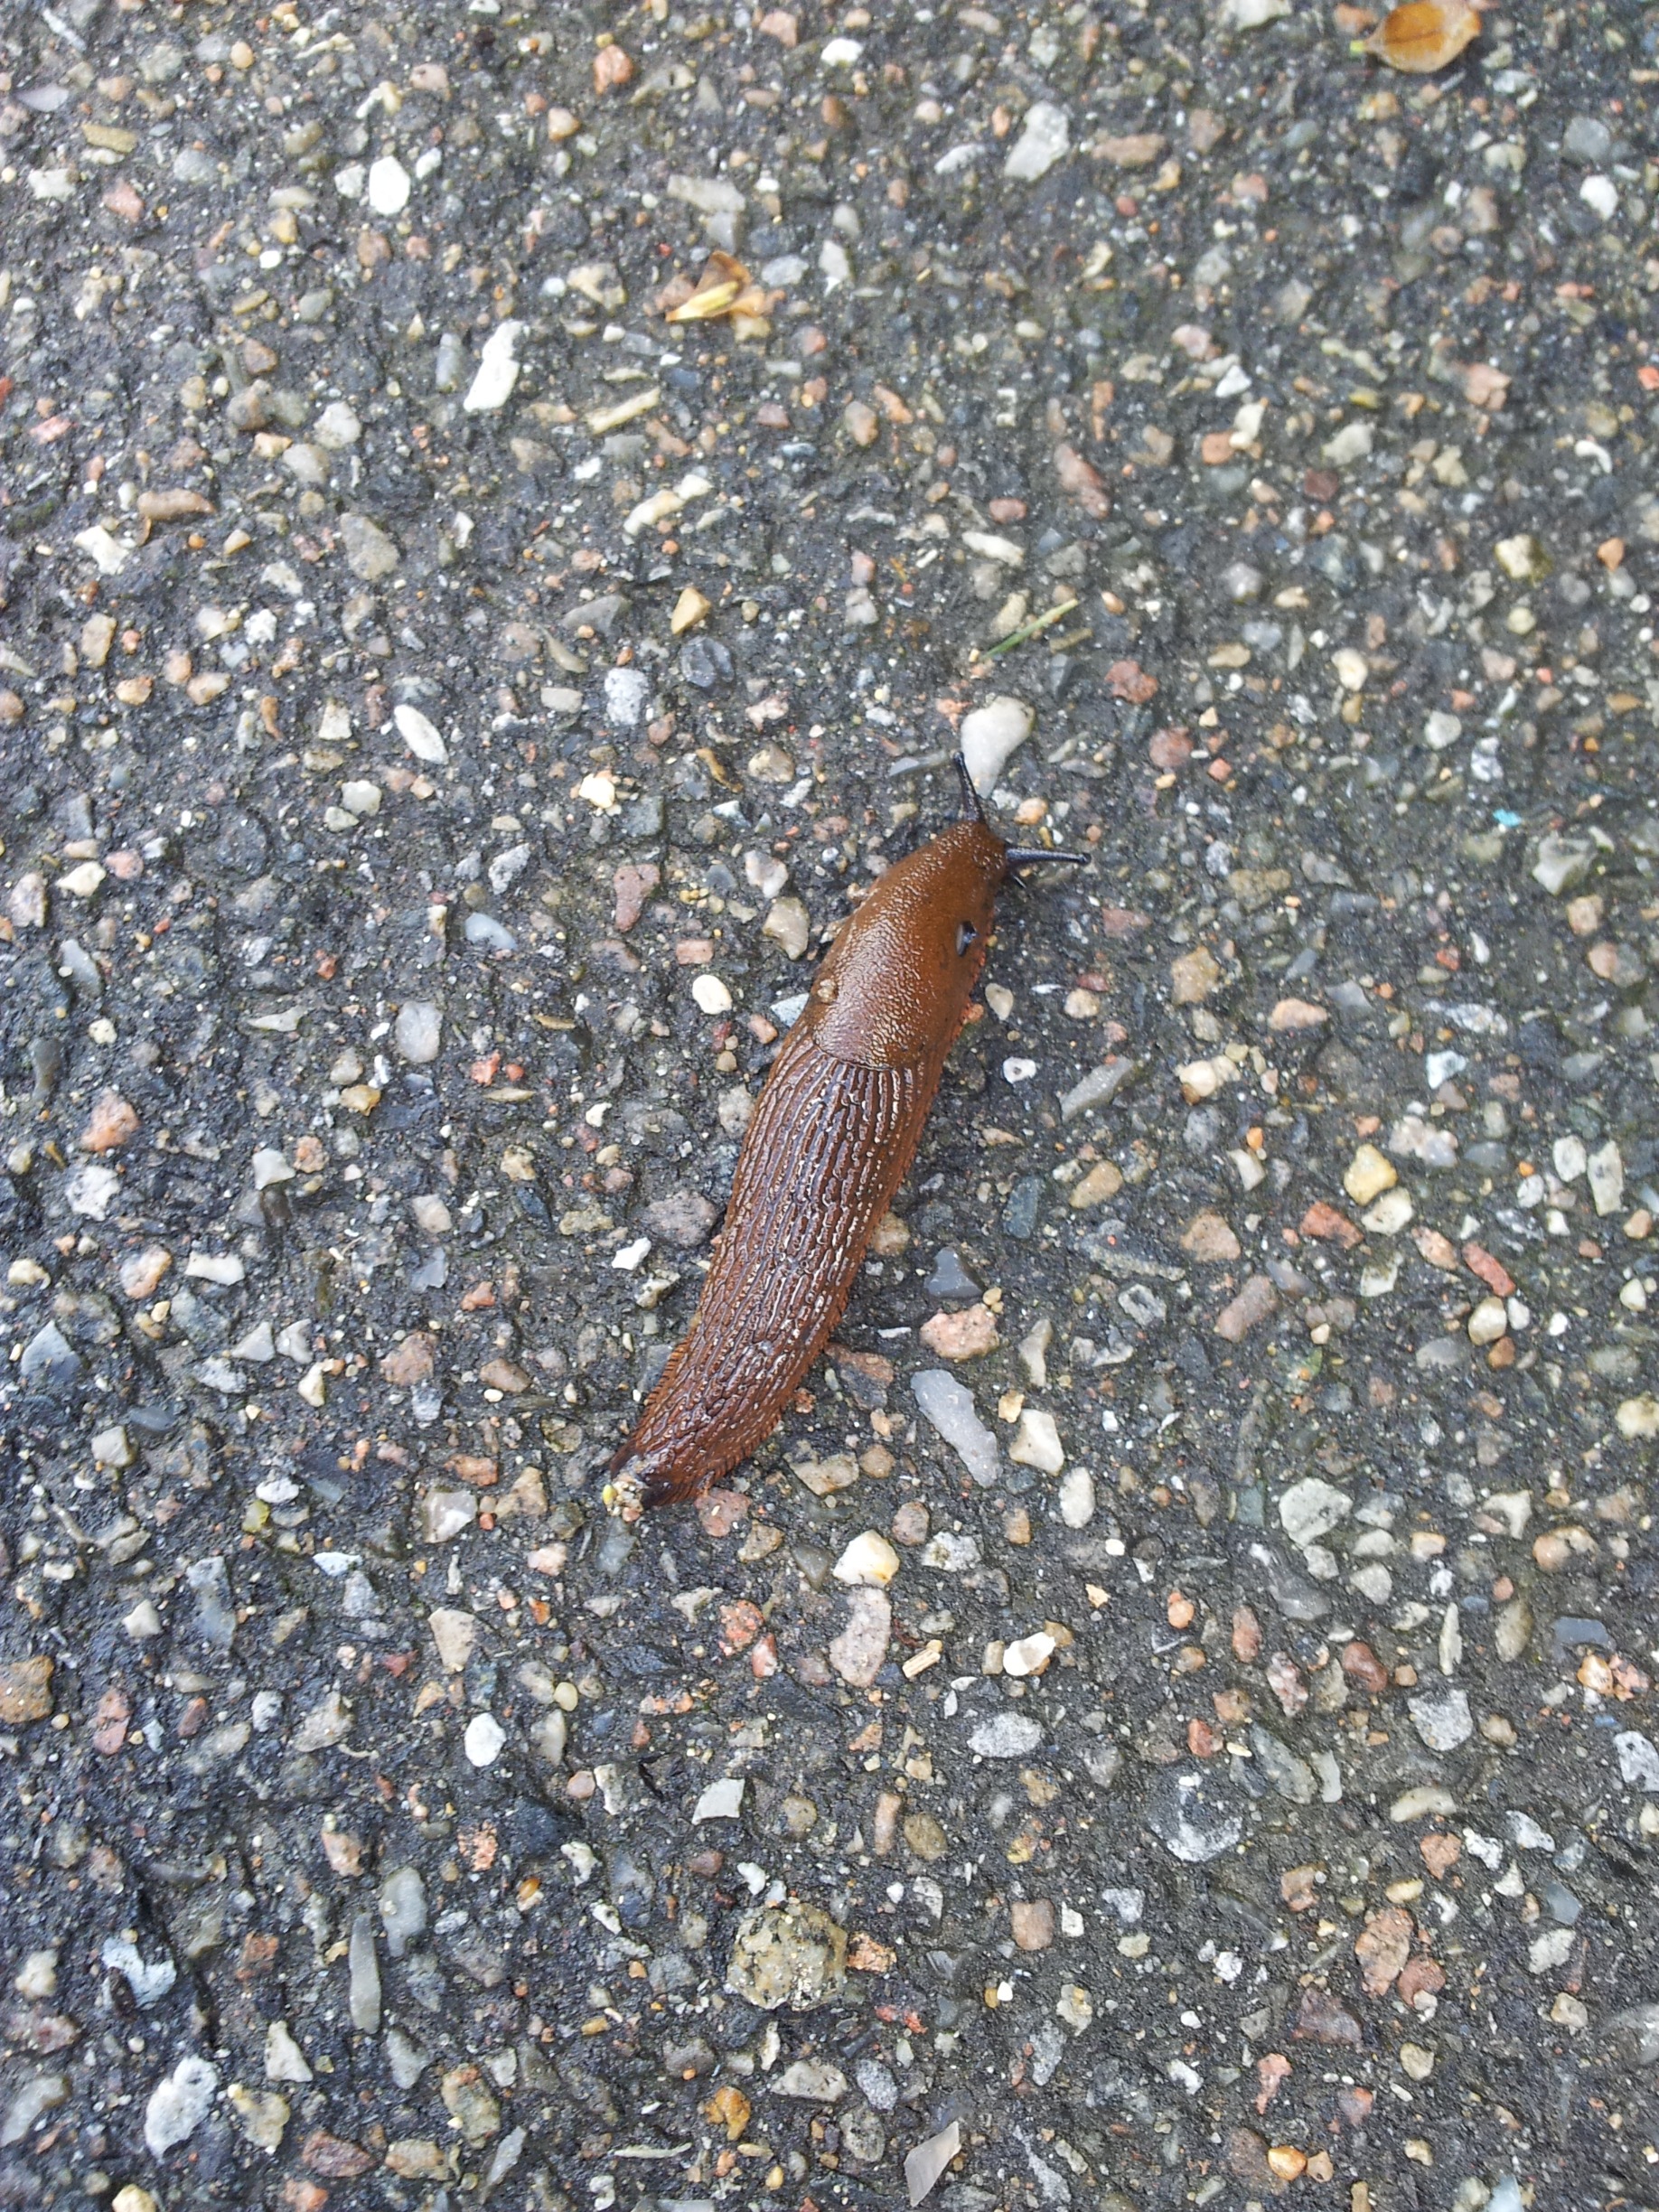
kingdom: Animalia
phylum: Mollusca
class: Gastropoda
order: Stylommatophora
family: Arionidae
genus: Arion
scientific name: Arion vulgaris
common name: Iberisk skovsnegl
